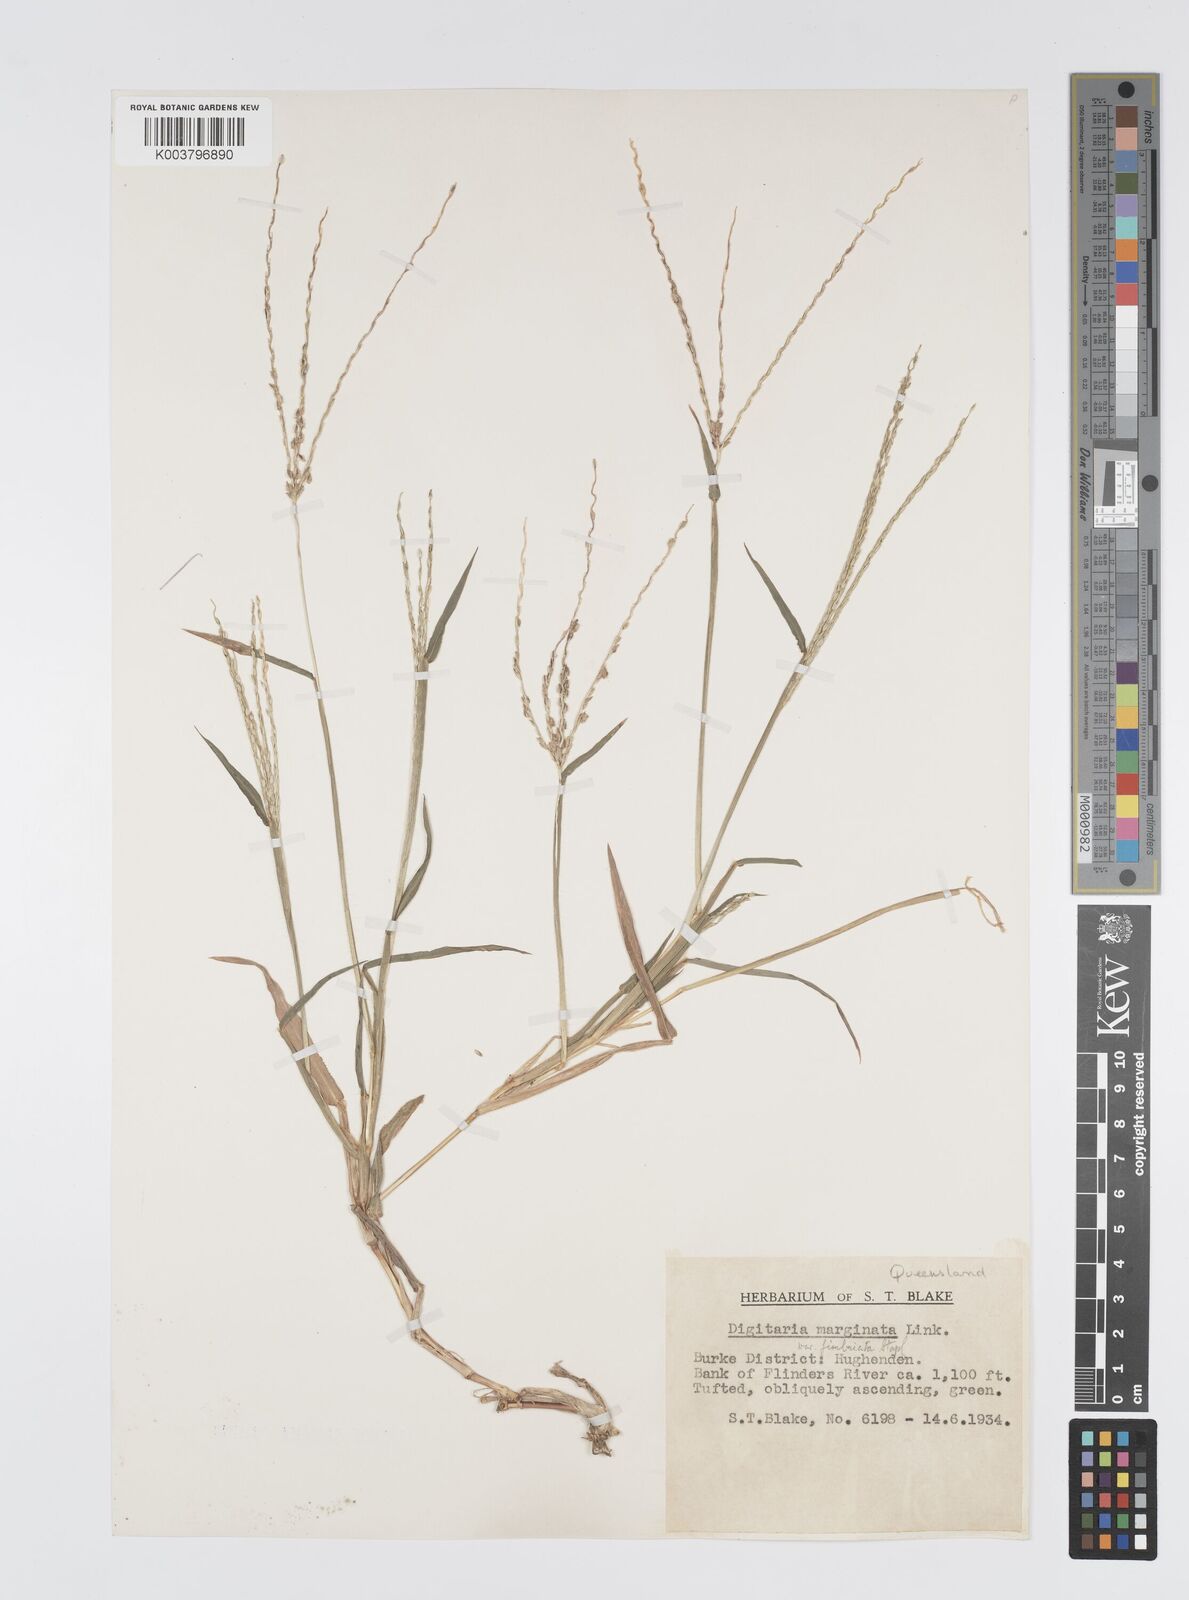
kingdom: Plantae
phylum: Tracheophyta
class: Liliopsida
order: Poales
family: Poaceae
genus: Digitaria
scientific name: Digitaria bicornis
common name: Asian crabgrass
